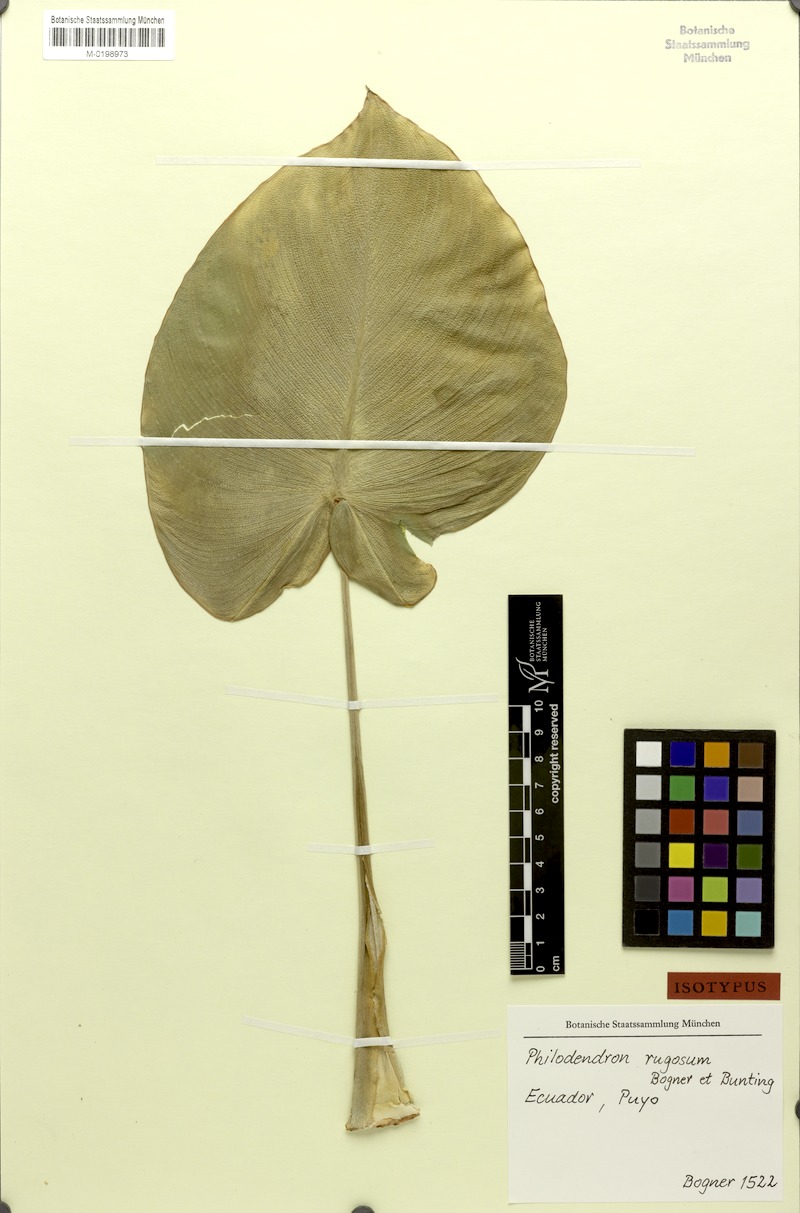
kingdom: Plantae
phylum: Tracheophyta
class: Liliopsida
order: Alismatales
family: Araceae
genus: Philodendron
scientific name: Philodendron rugosum
